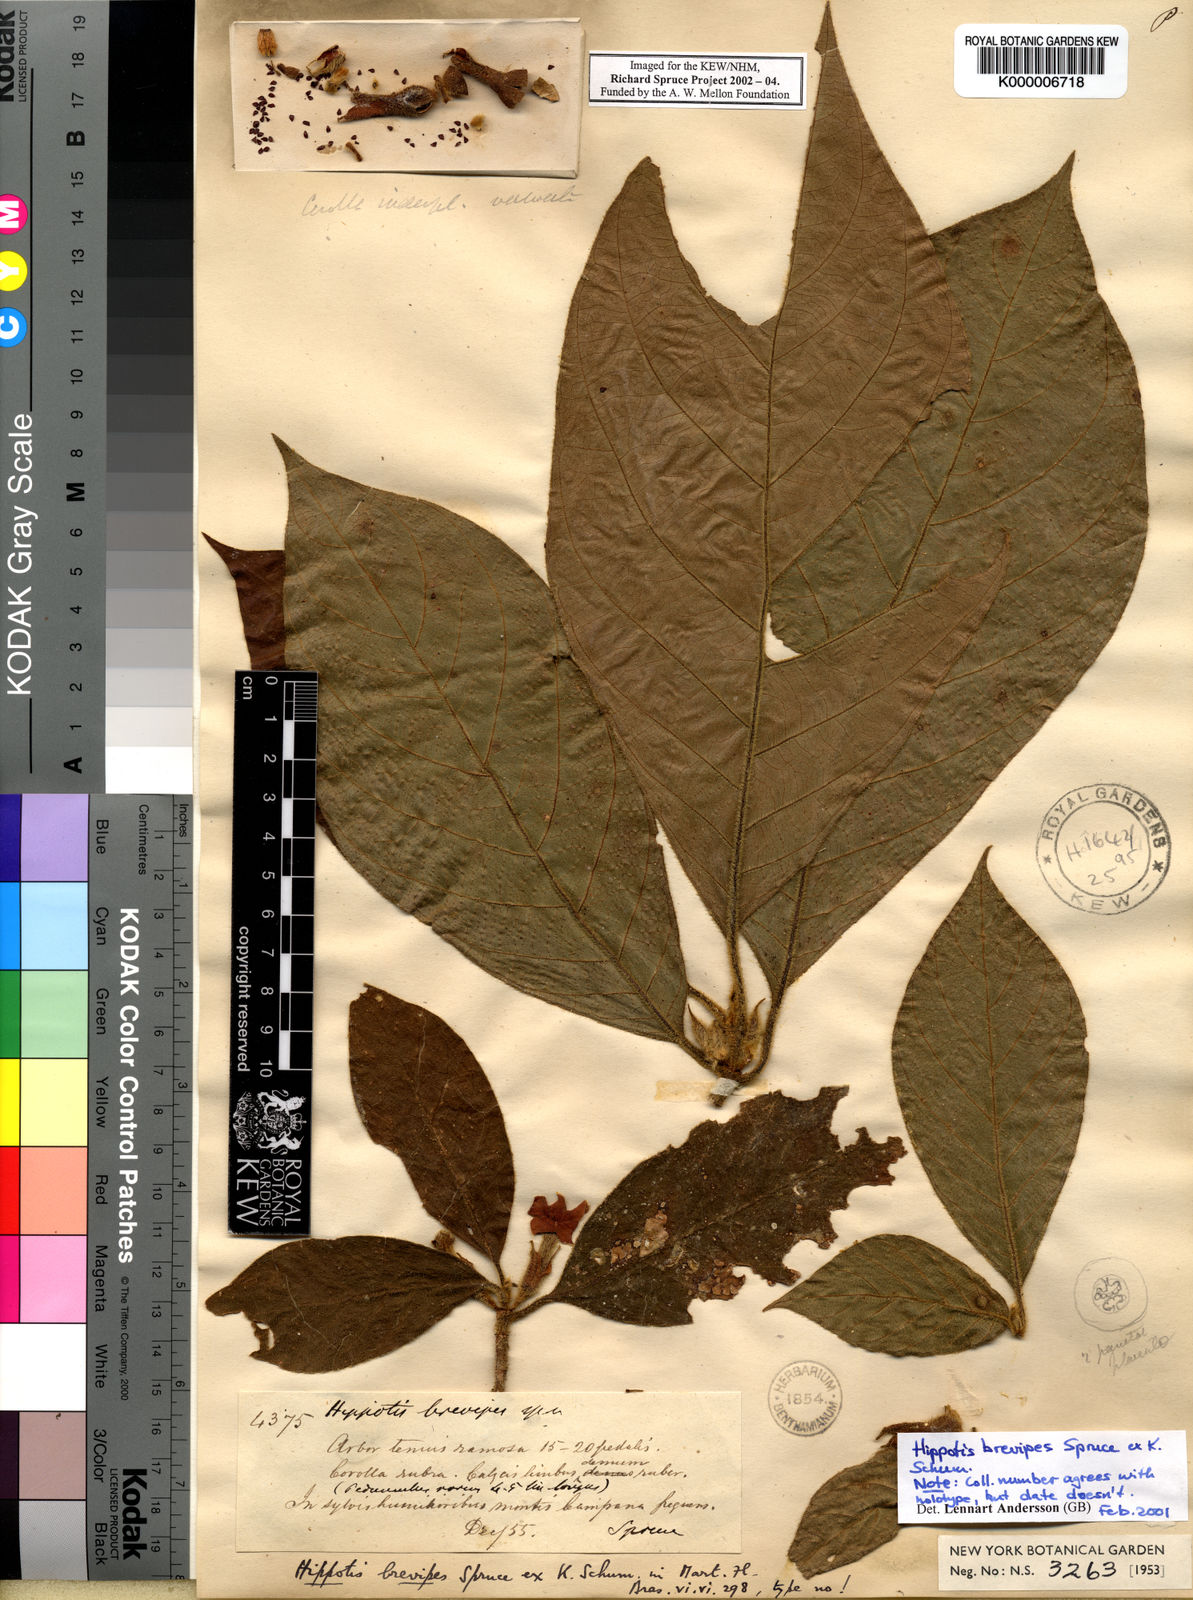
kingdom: Plantae
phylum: Tracheophyta
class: Magnoliopsida
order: Gentianales
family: Rubiaceae
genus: Hippotis
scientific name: Hippotis brevipes
